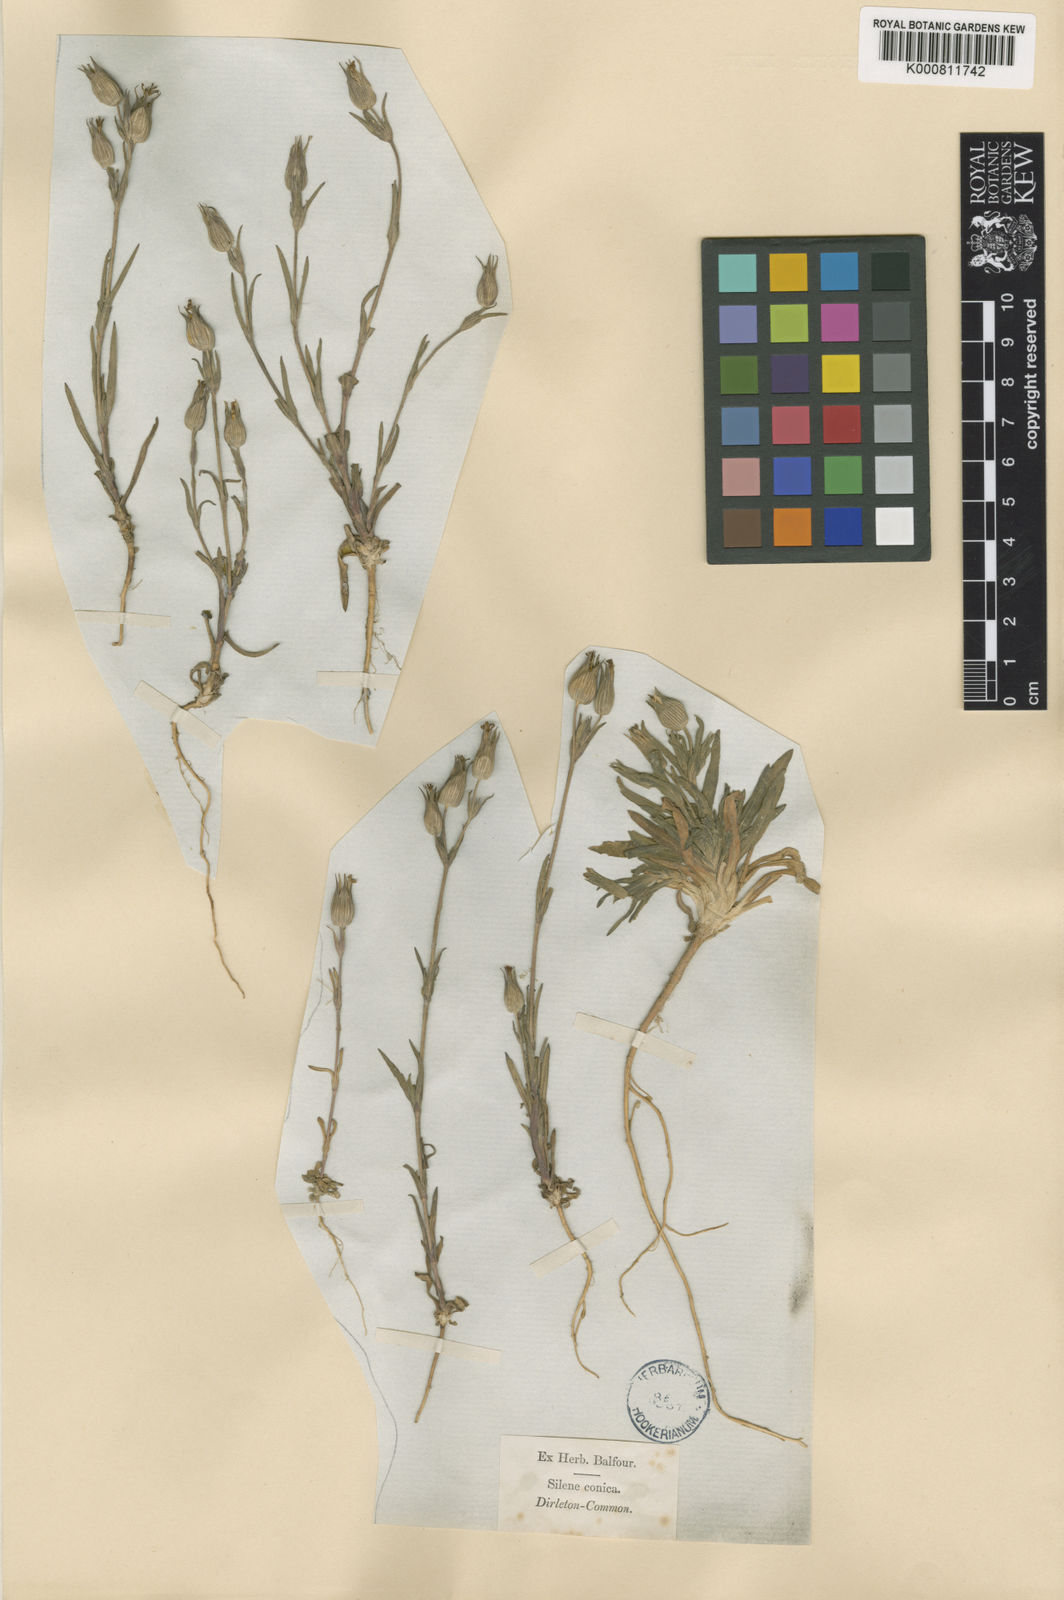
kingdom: Plantae
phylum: Tracheophyta
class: Magnoliopsida
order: Caryophyllales
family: Caryophyllaceae
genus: Silene
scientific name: Silene conica
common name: Sand catchfly
